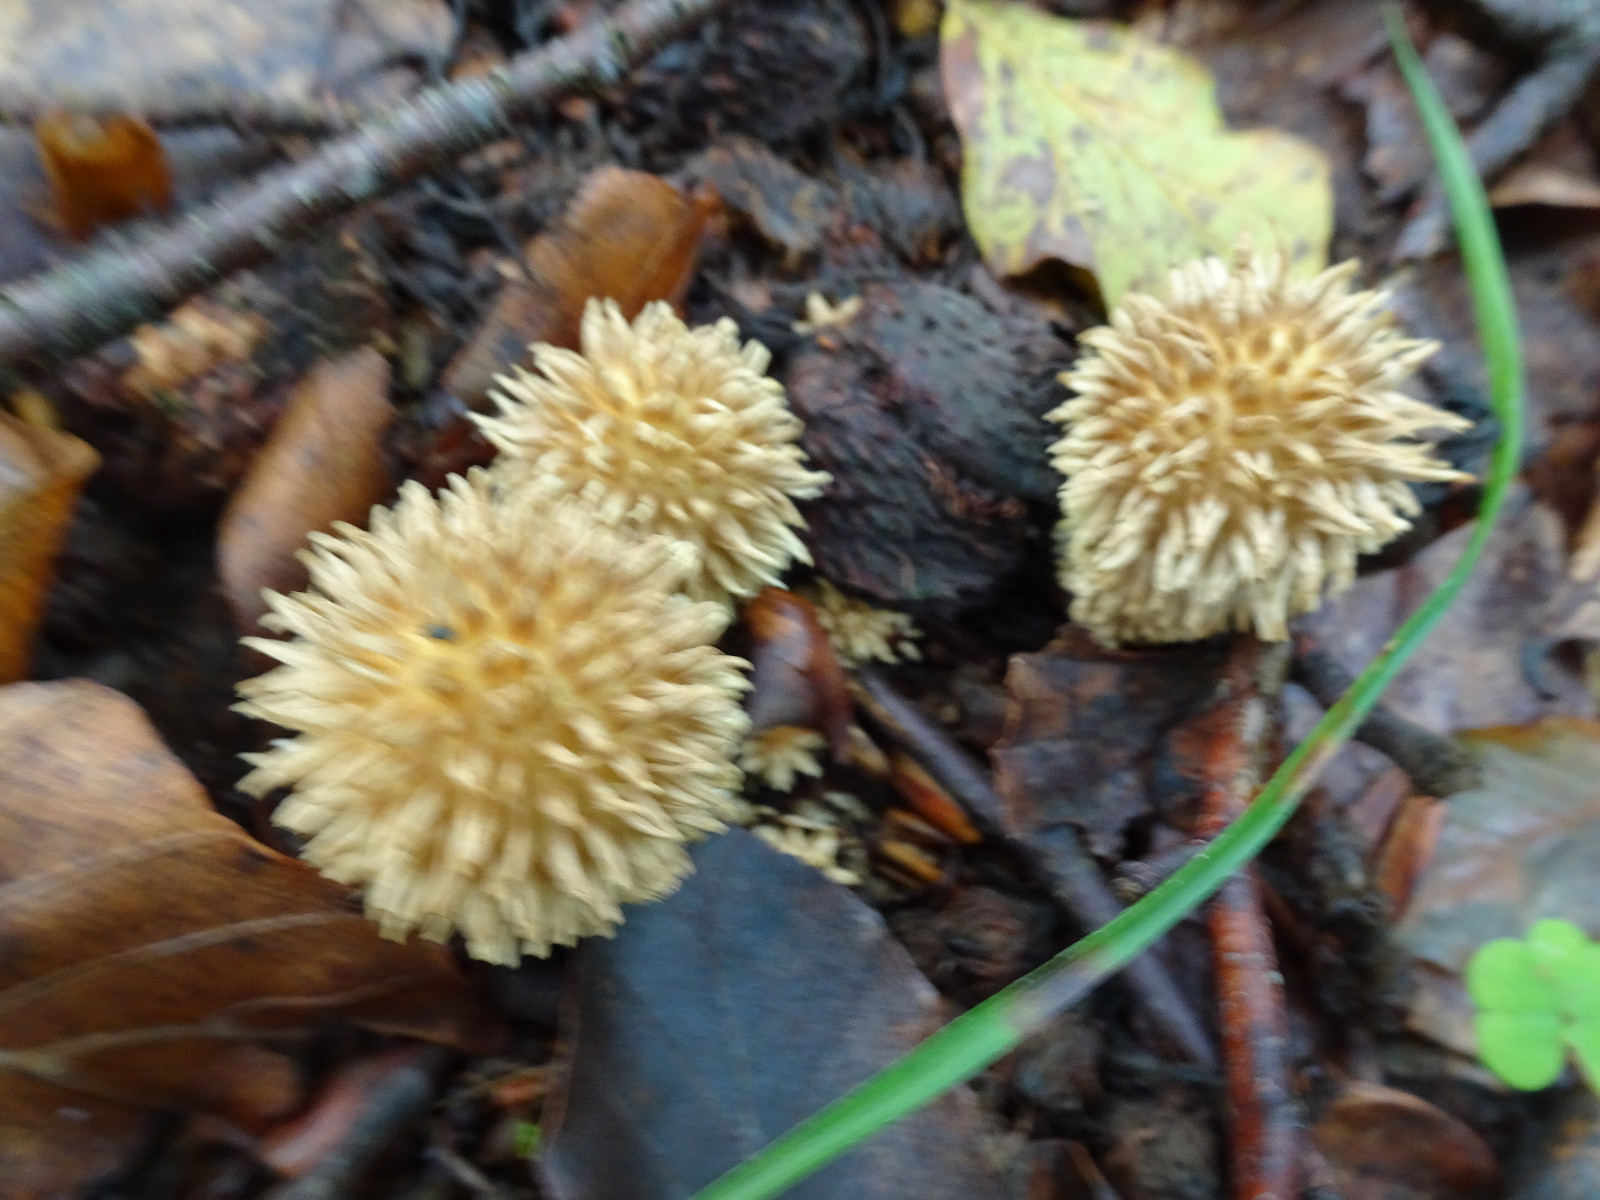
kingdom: Fungi
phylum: Basidiomycota
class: Agaricomycetes
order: Agaricales
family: Lycoperdaceae
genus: Lycoperdon
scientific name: Lycoperdon echinatum
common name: pindsvine-støvbold
